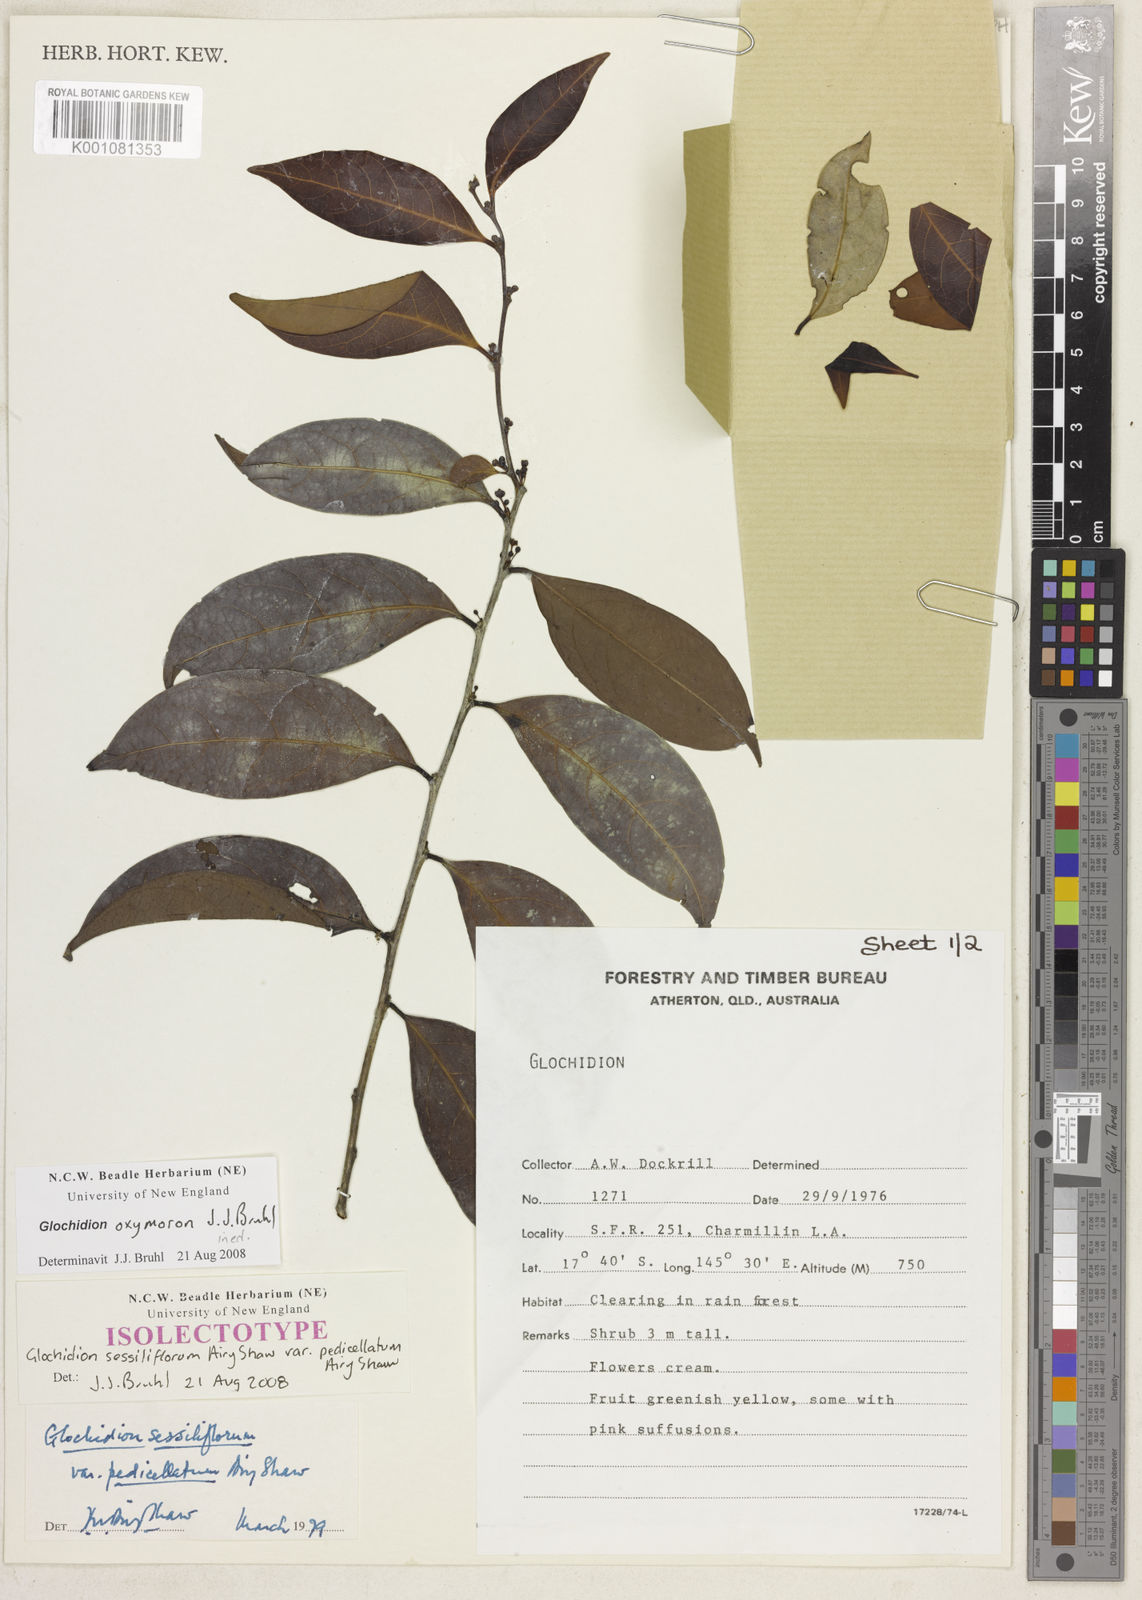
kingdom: Plantae
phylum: Tracheophyta
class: Magnoliopsida
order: Malpighiales
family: Phyllanthaceae
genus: Glochidion
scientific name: Glochidion
